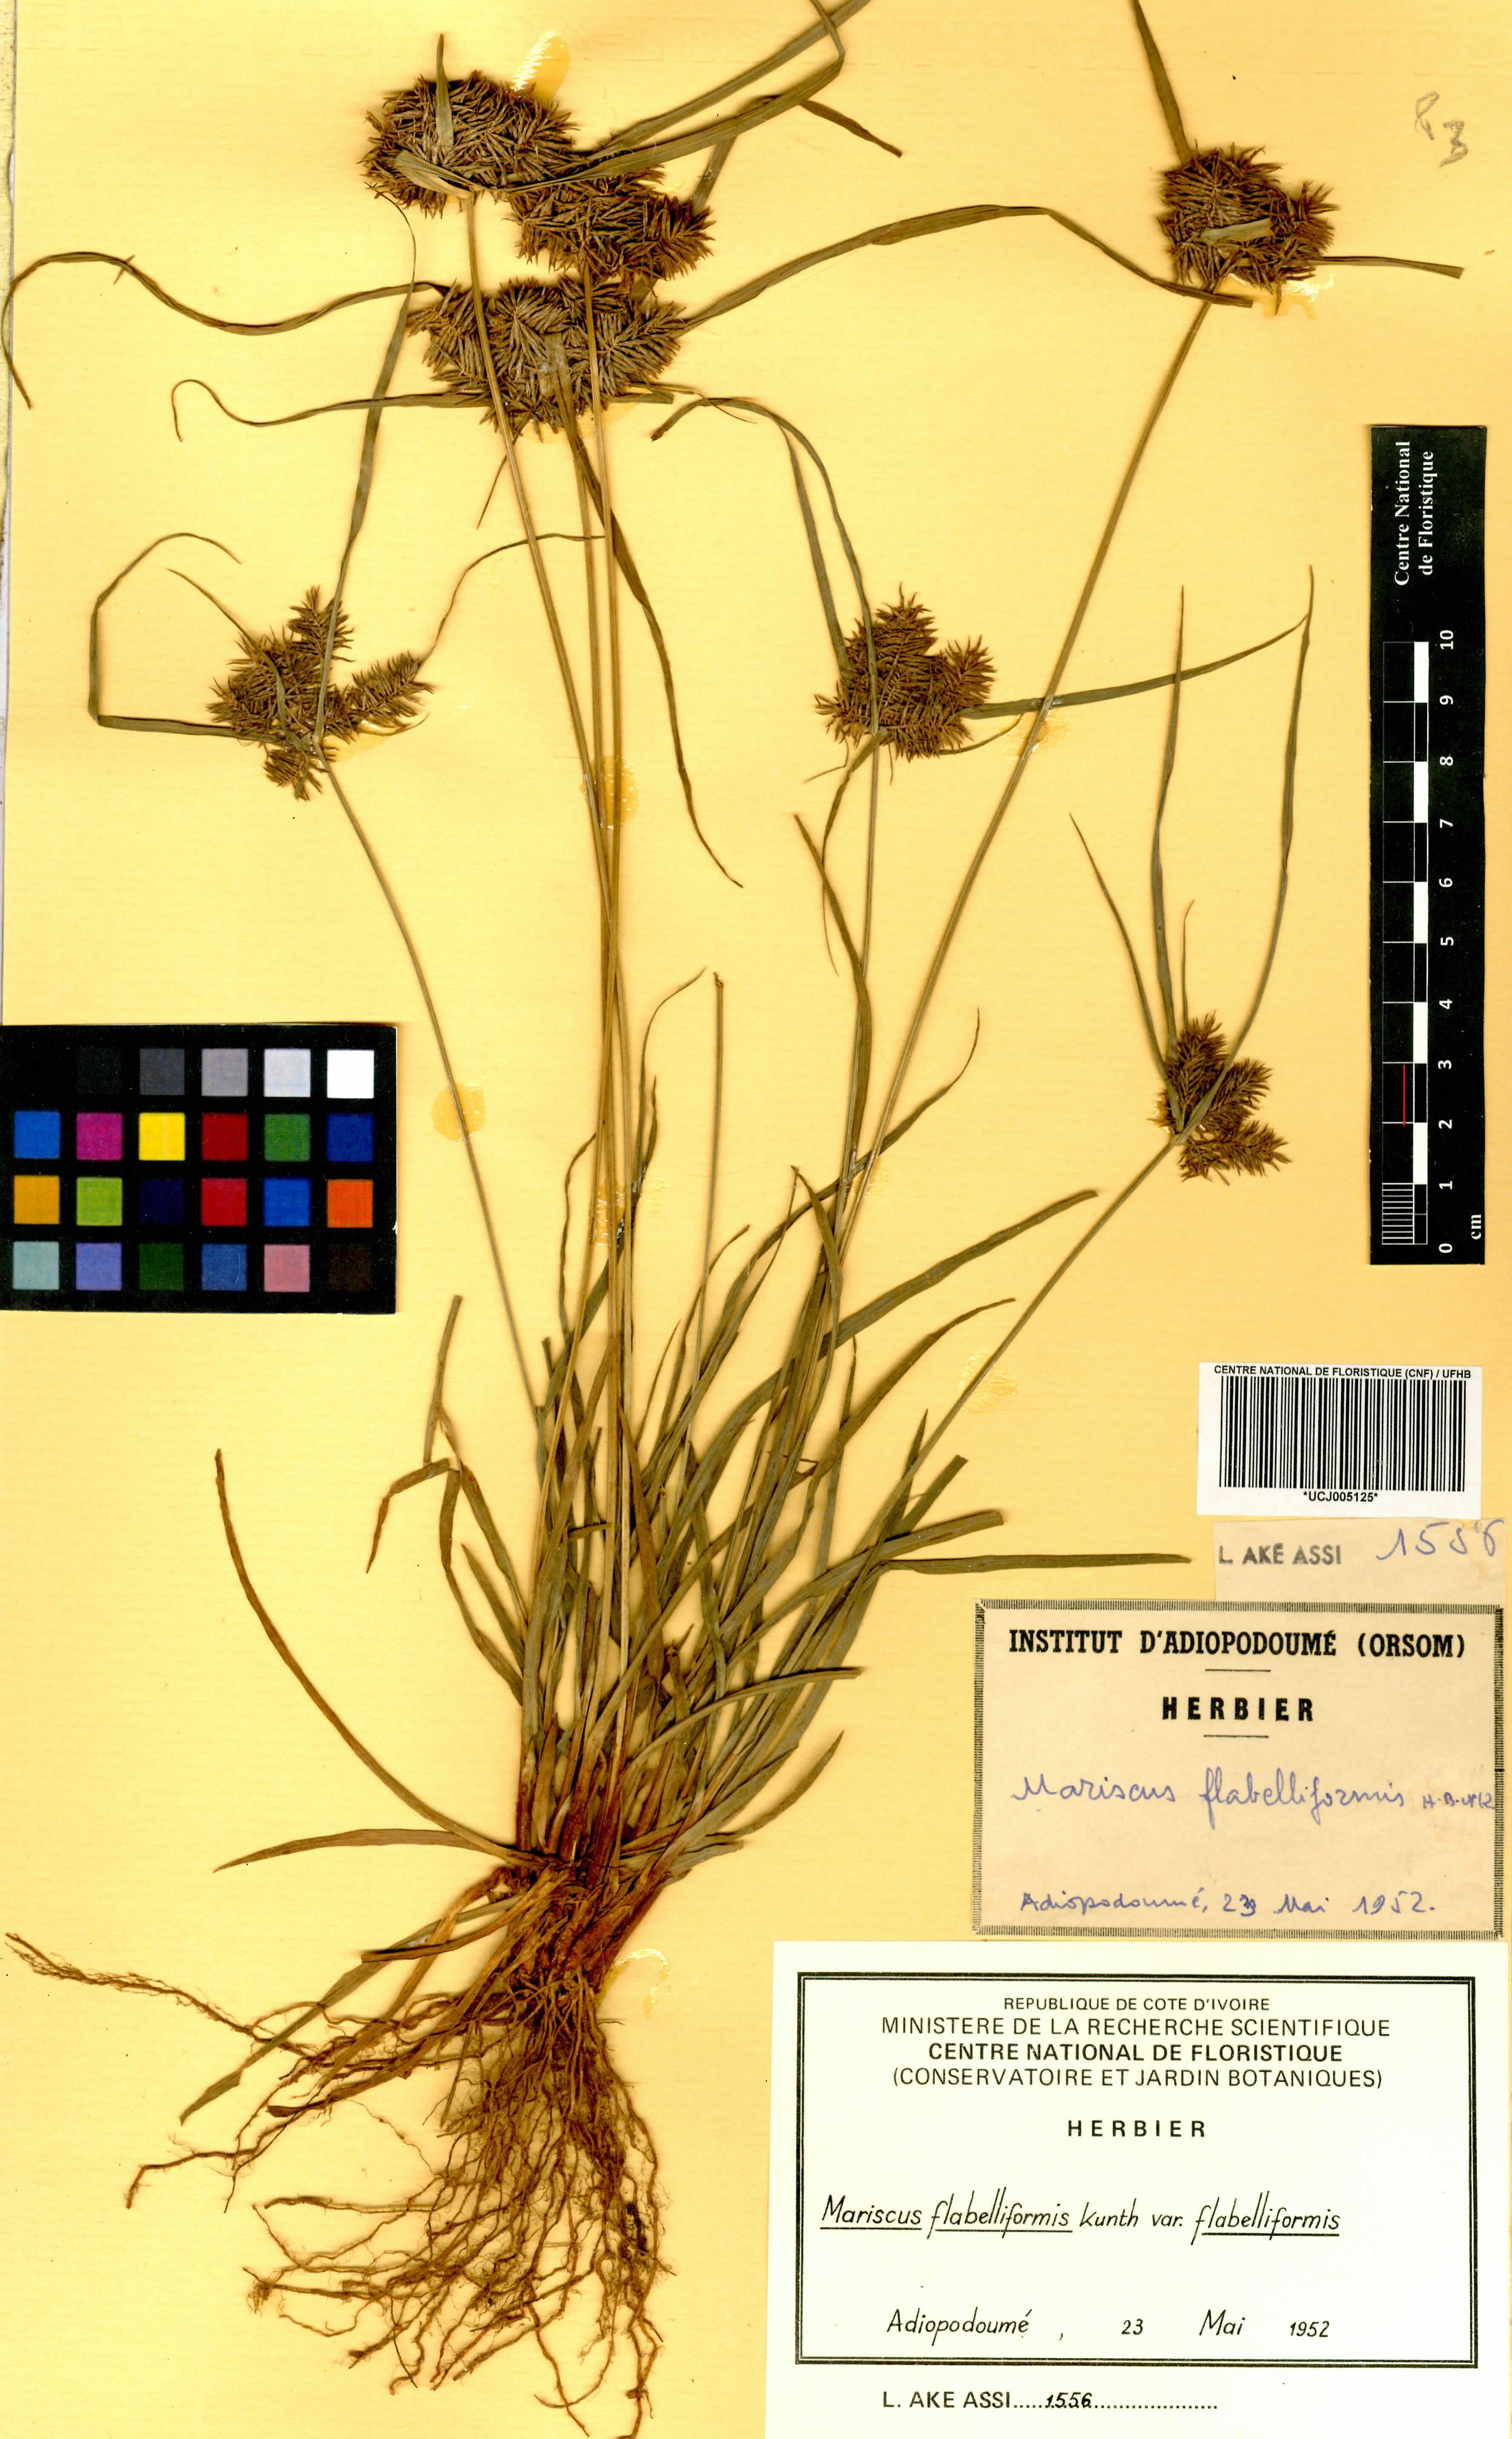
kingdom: Plantae
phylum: Tracheophyta
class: Liliopsida
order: Poales
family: Cyperaceae
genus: Cyperus
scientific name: Cyperus tenuis
